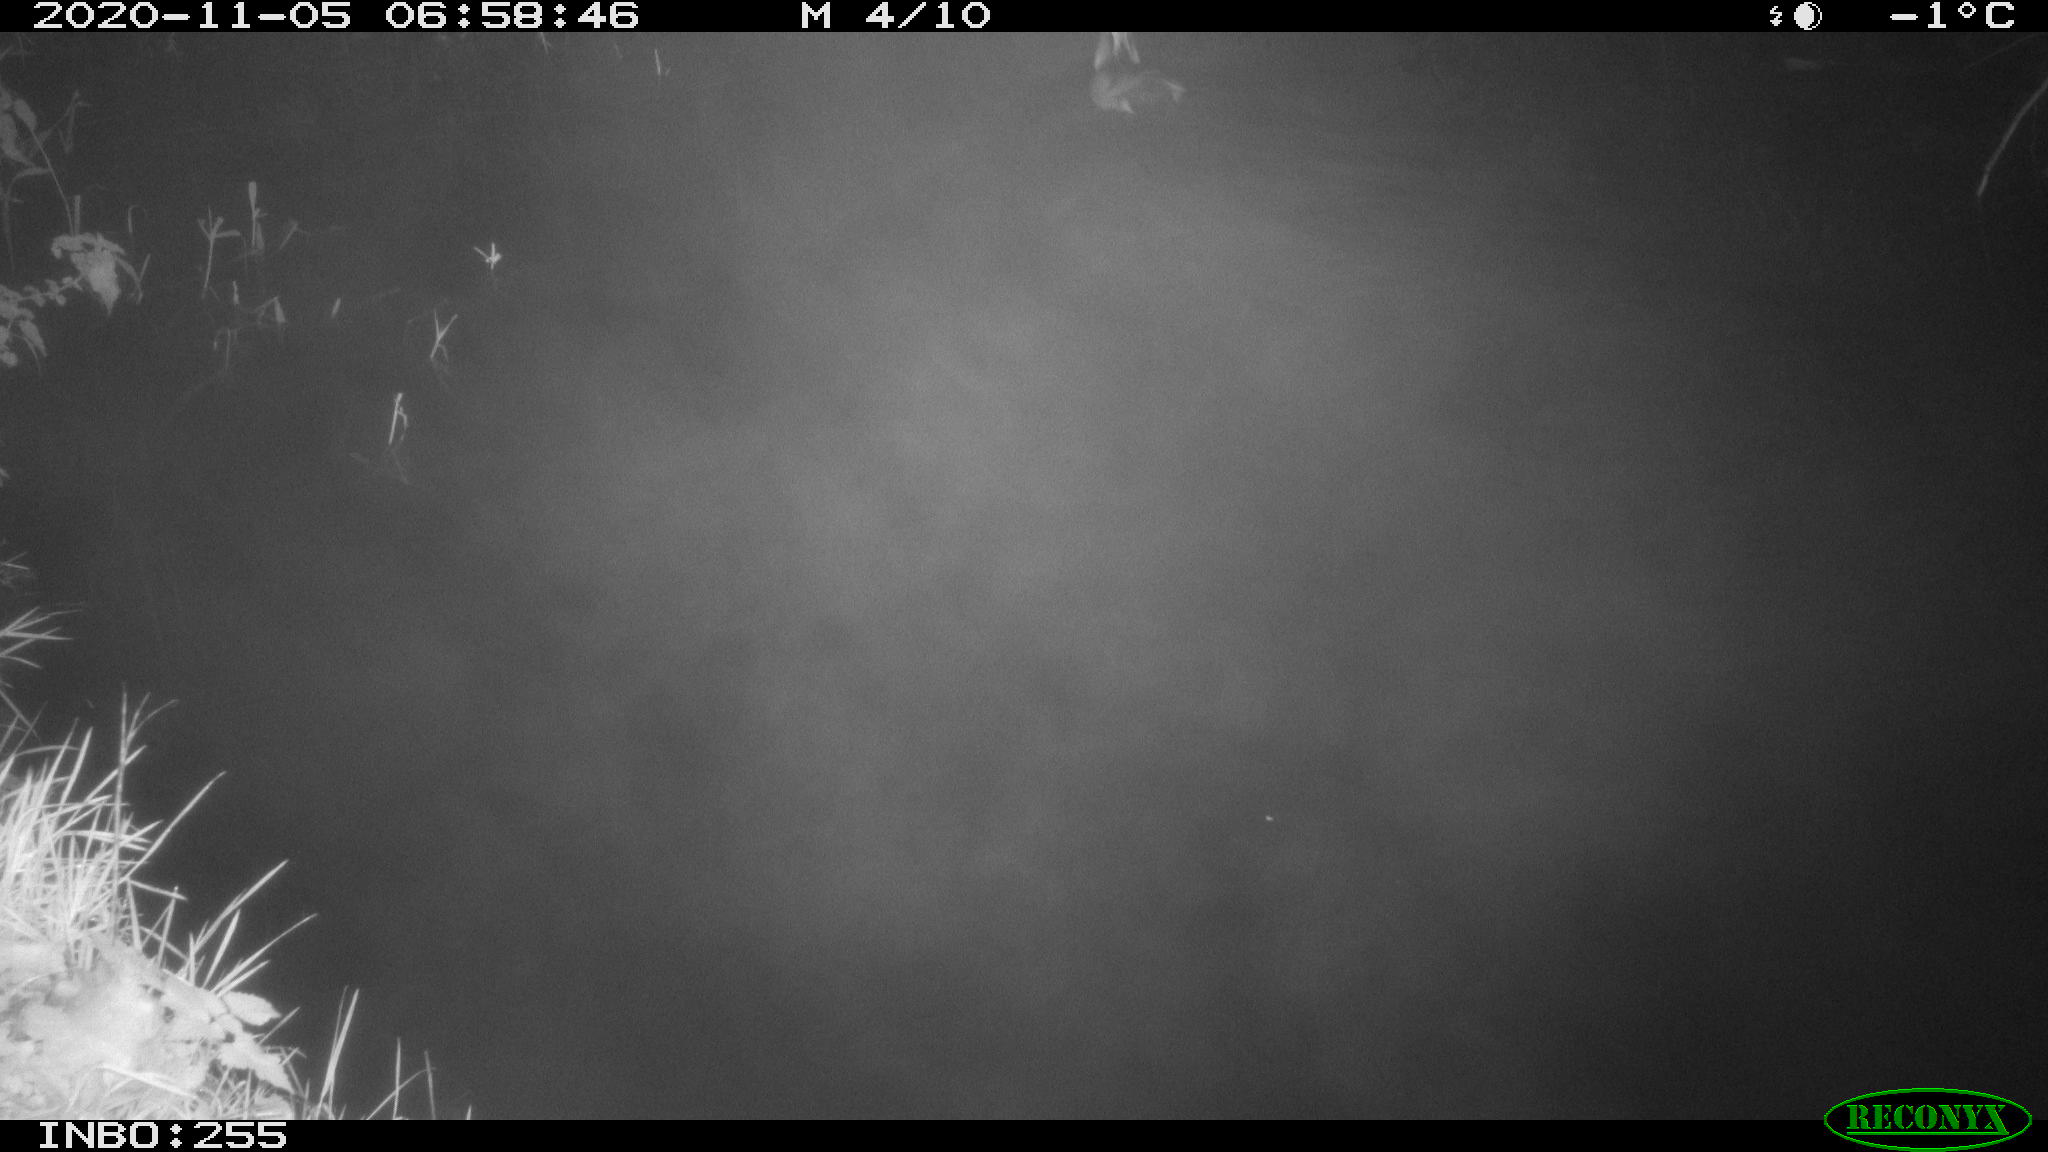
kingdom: Animalia
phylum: Chordata
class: Aves
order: Anseriformes
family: Anatidae
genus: Aix
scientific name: Aix galericulata
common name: Mandarin duck
